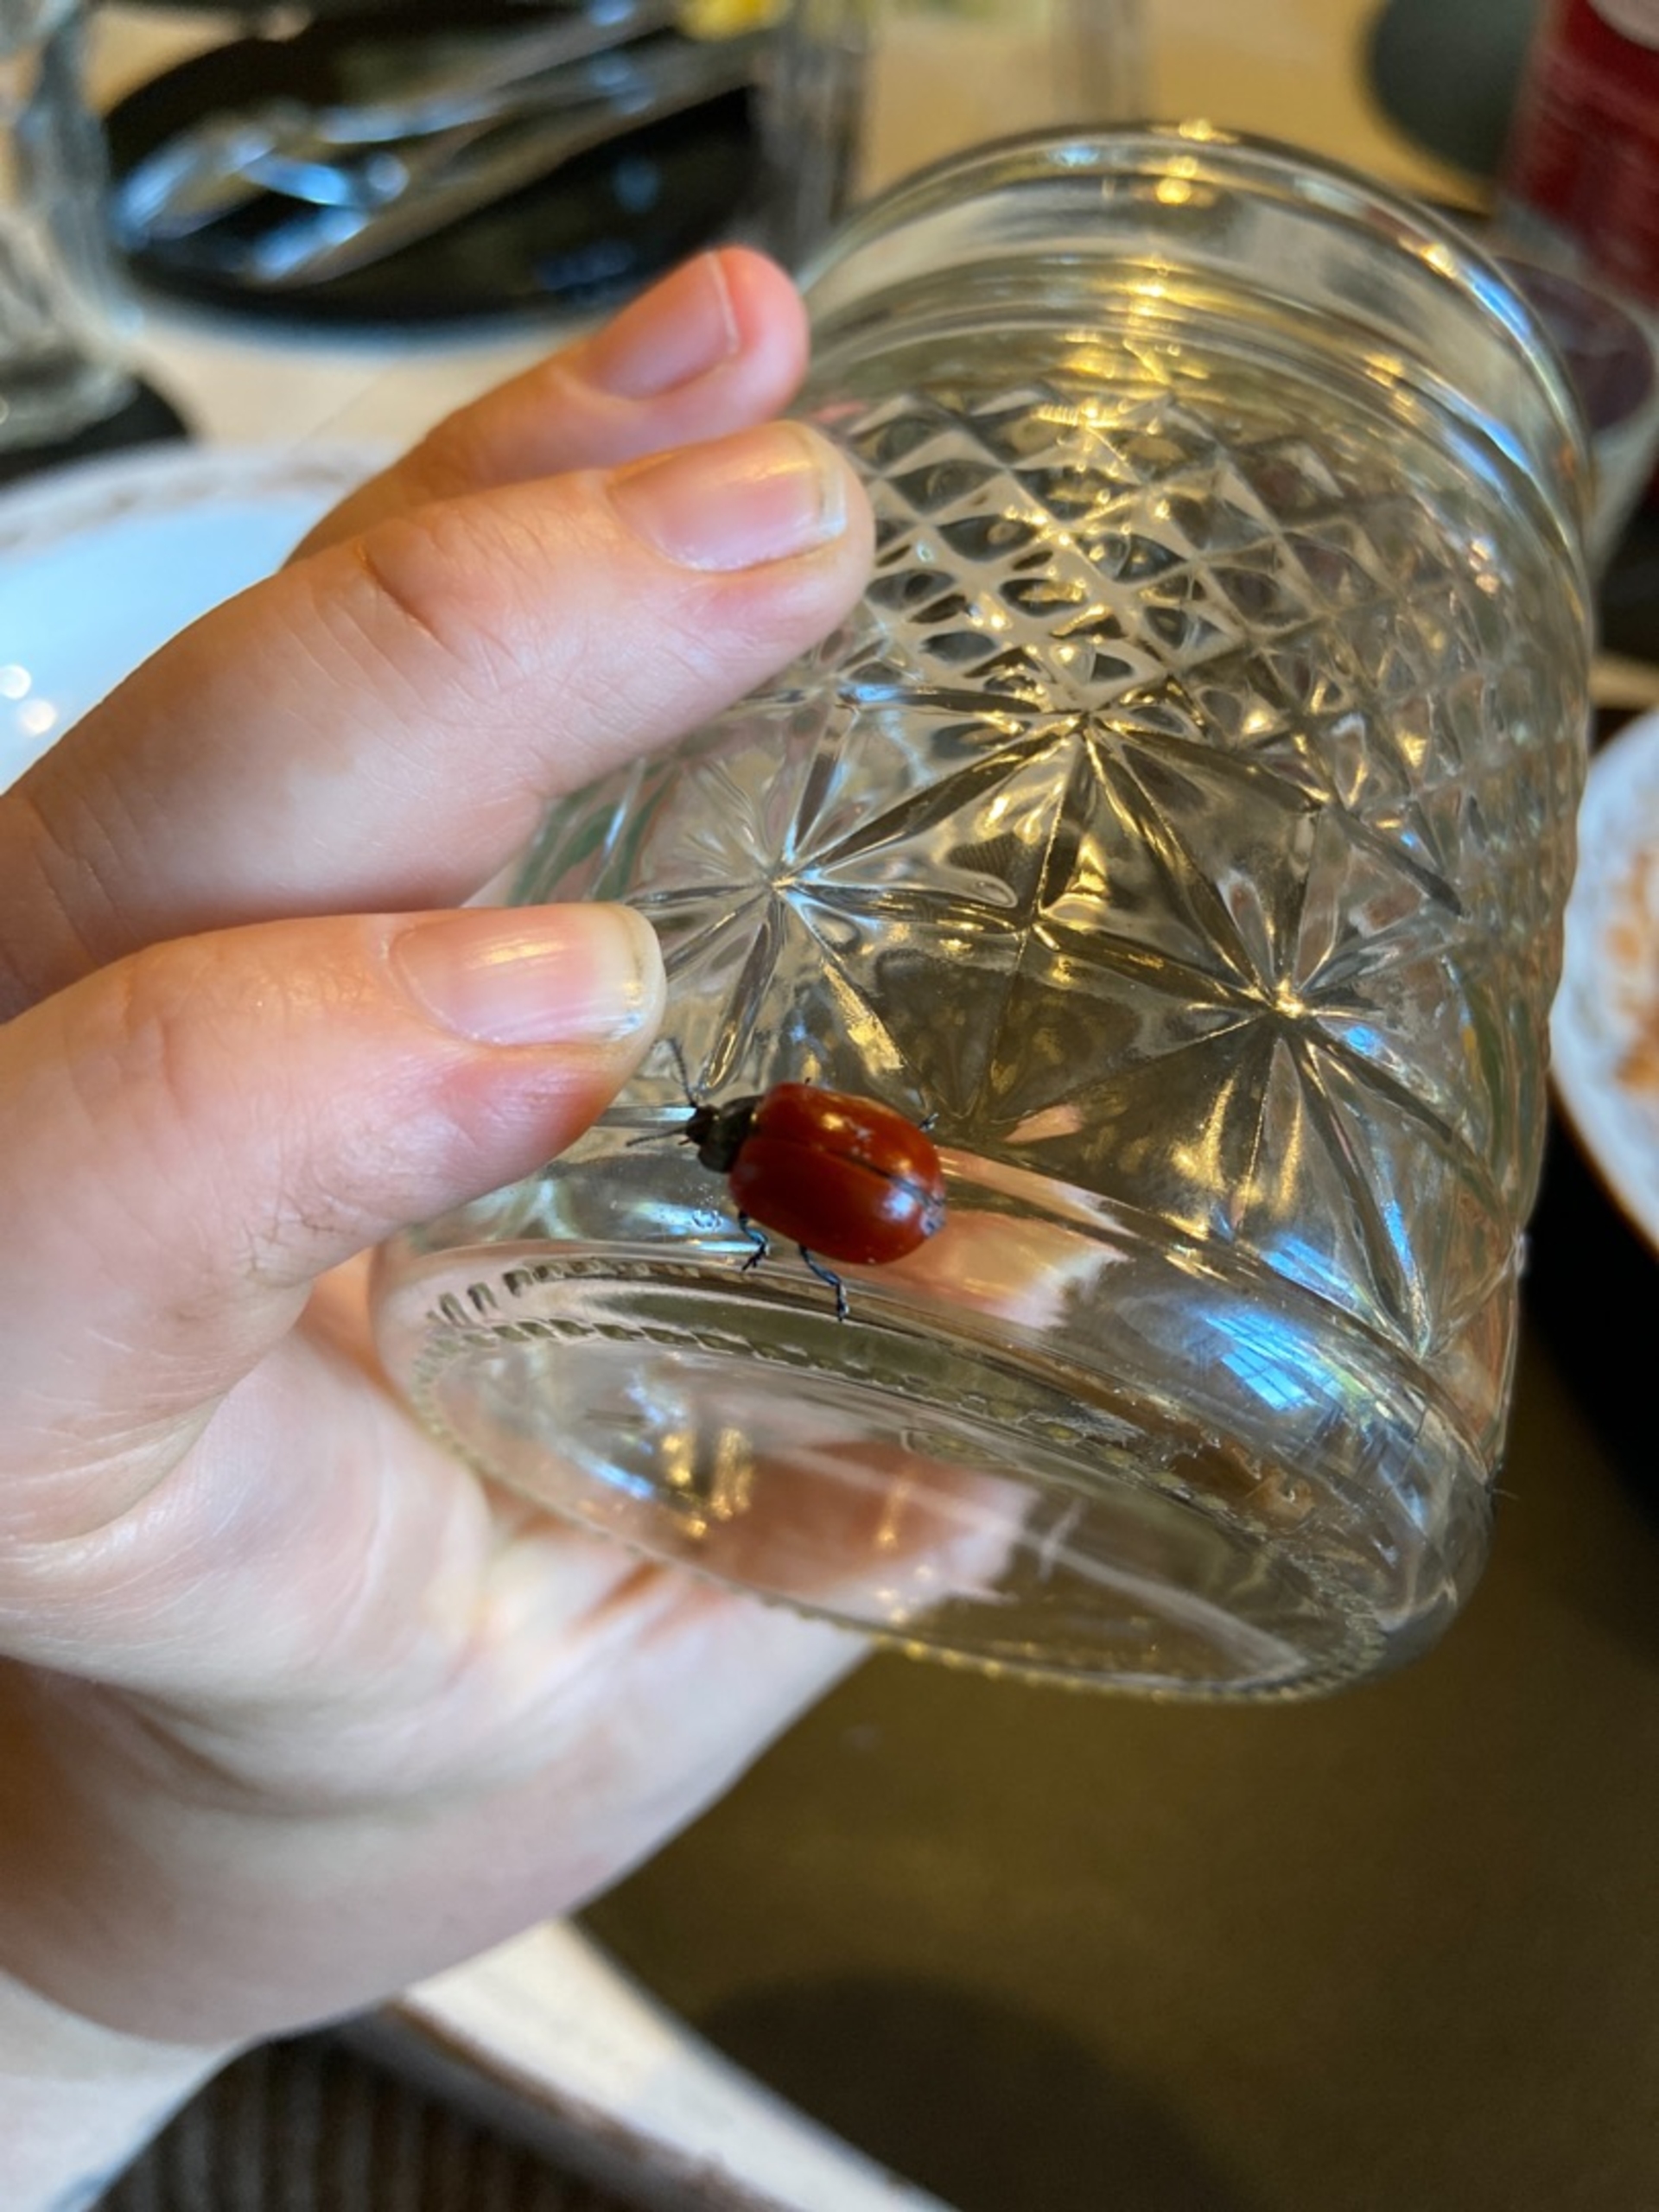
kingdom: Animalia
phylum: Arthropoda
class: Insecta
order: Coleoptera
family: Chrysomelidae
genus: Chrysomela
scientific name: Chrysomela populi
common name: Poppelbladbille
